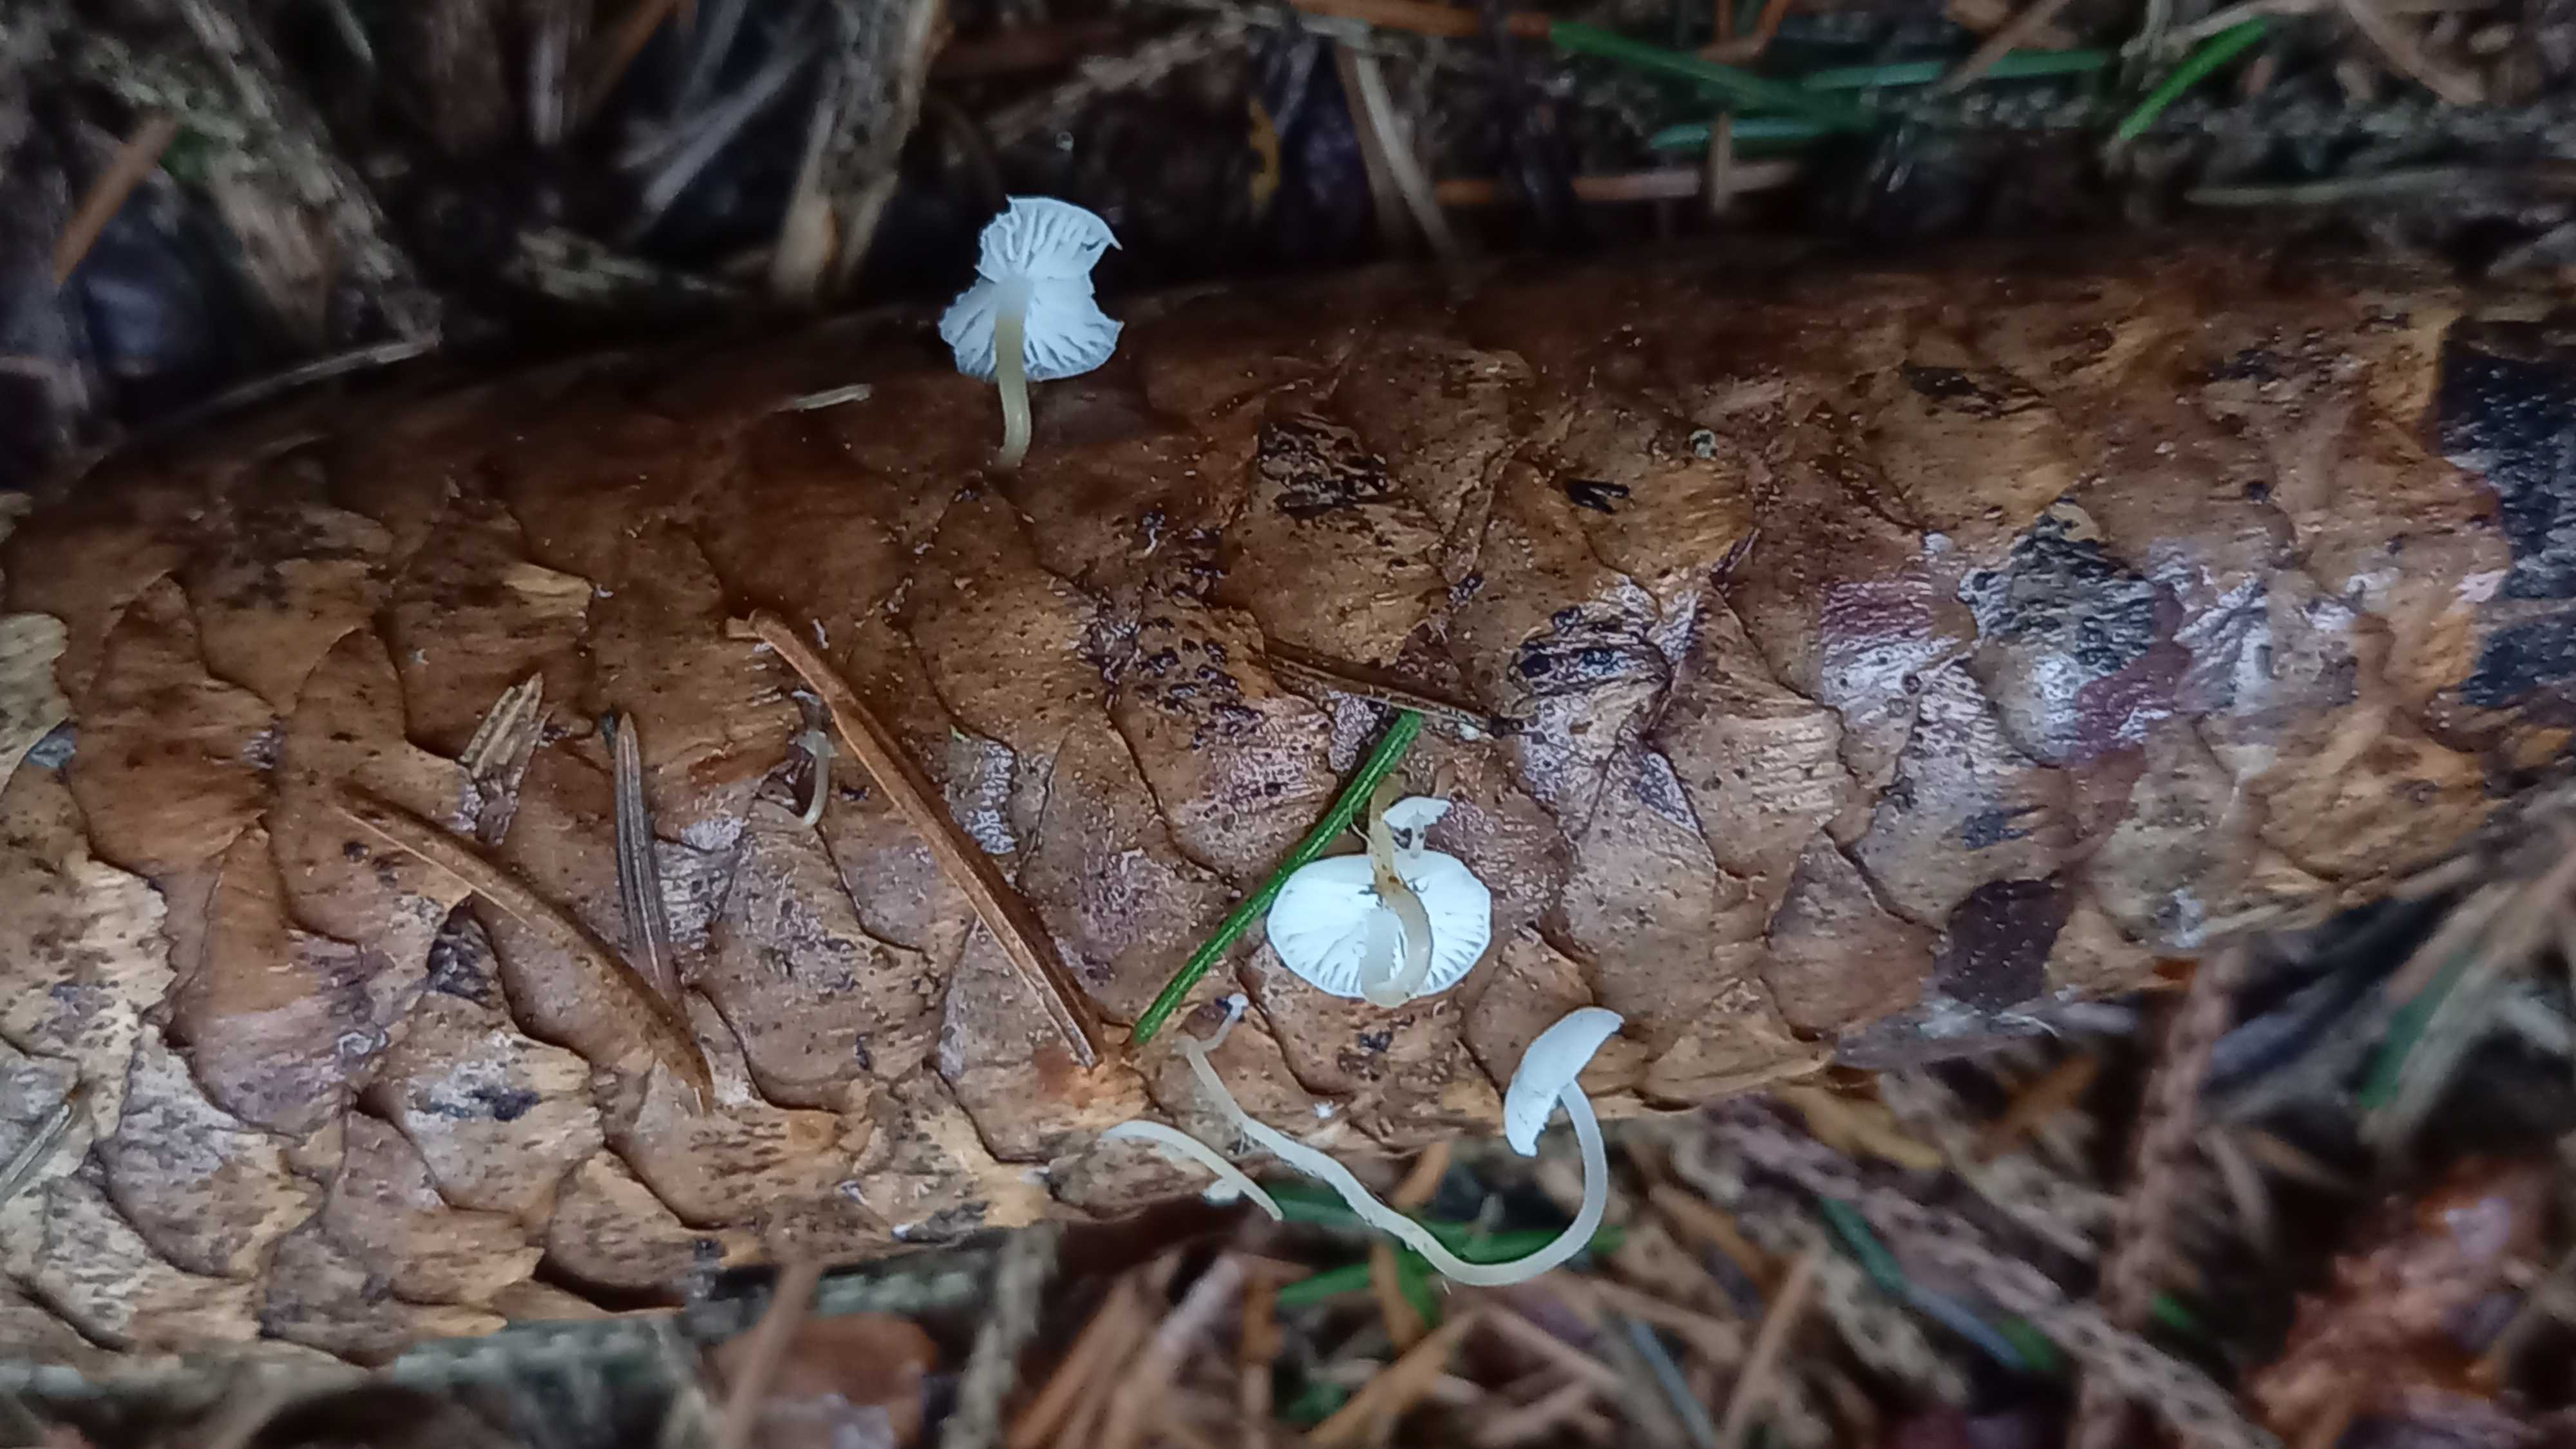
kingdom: Fungi
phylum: Basidiomycota
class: Agaricomycetes
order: Agaricales
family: Physalacriaceae
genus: Strobilurus
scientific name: Strobilurus esculentus
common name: gran-koglehat
